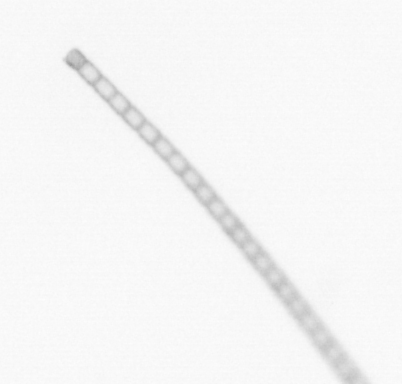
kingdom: Chromista
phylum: Ochrophyta
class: Bacillariophyceae
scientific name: Bacillariophyceae
